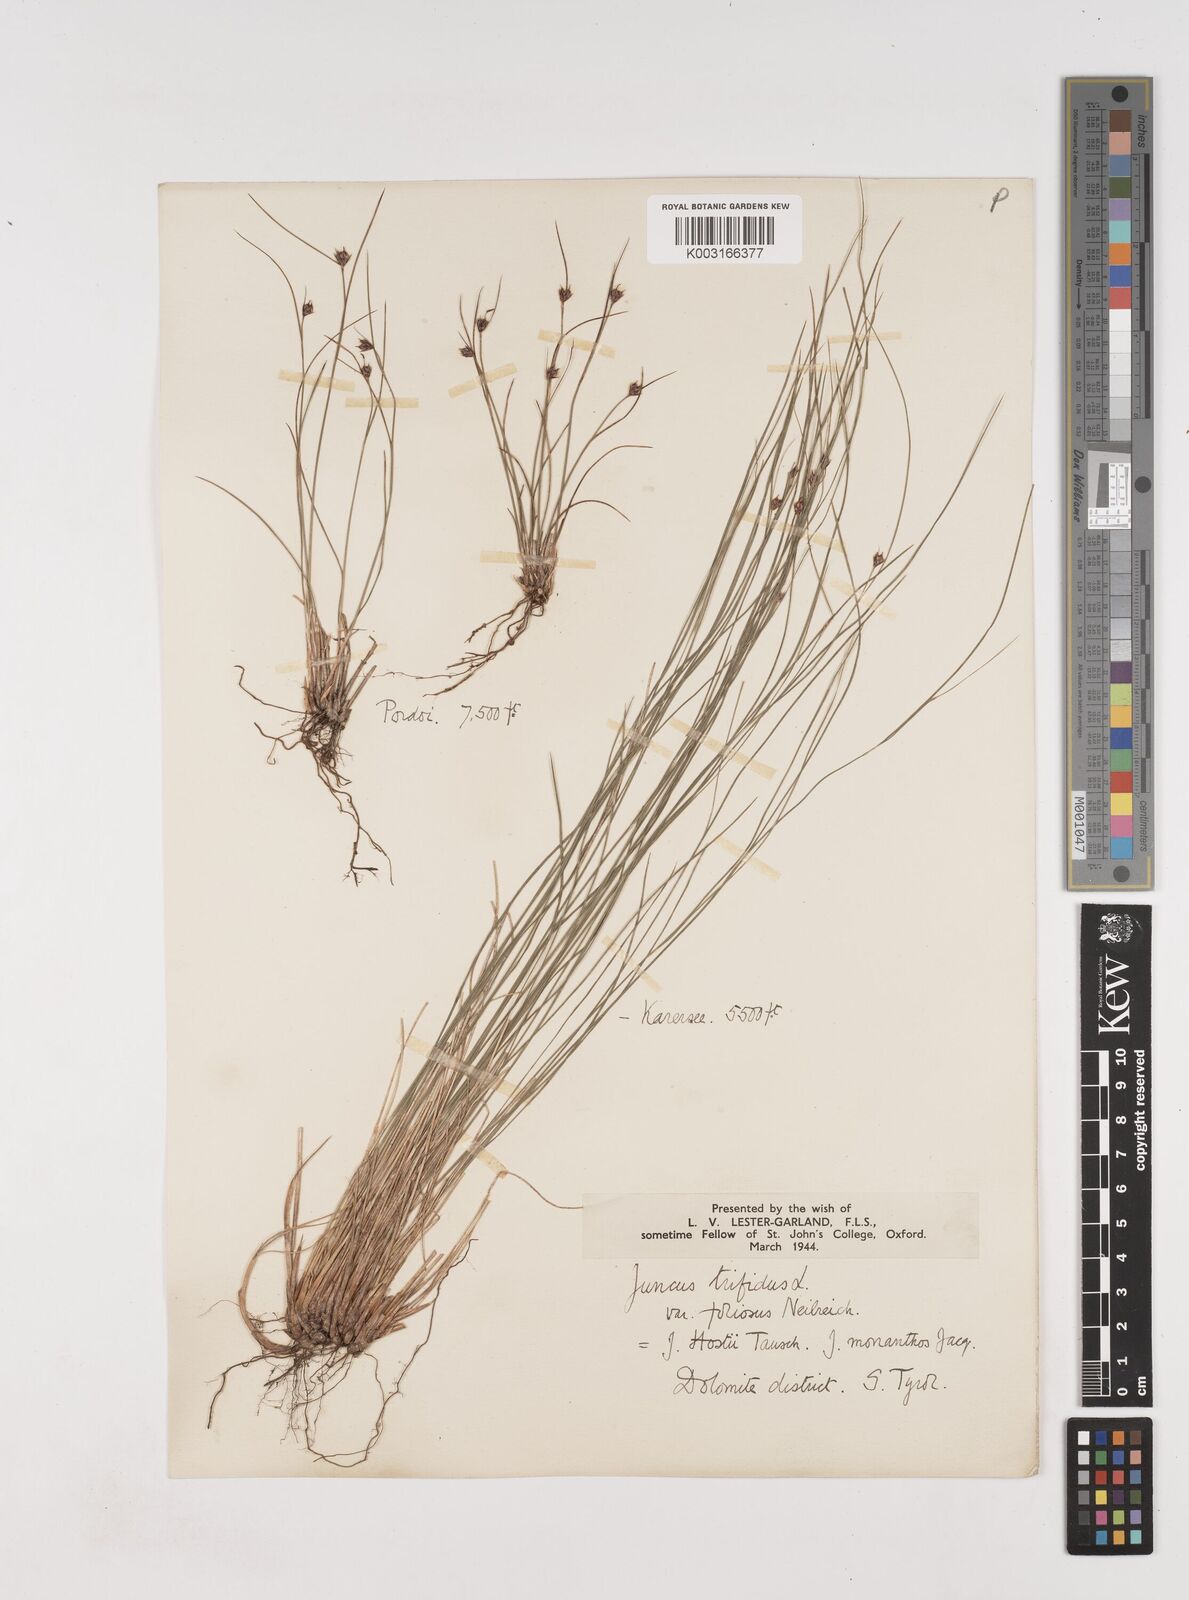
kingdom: Plantae
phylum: Tracheophyta
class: Liliopsida
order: Poales
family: Juncaceae
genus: Oreojuncus
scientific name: Oreojuncus trifidus
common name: Highland rush
